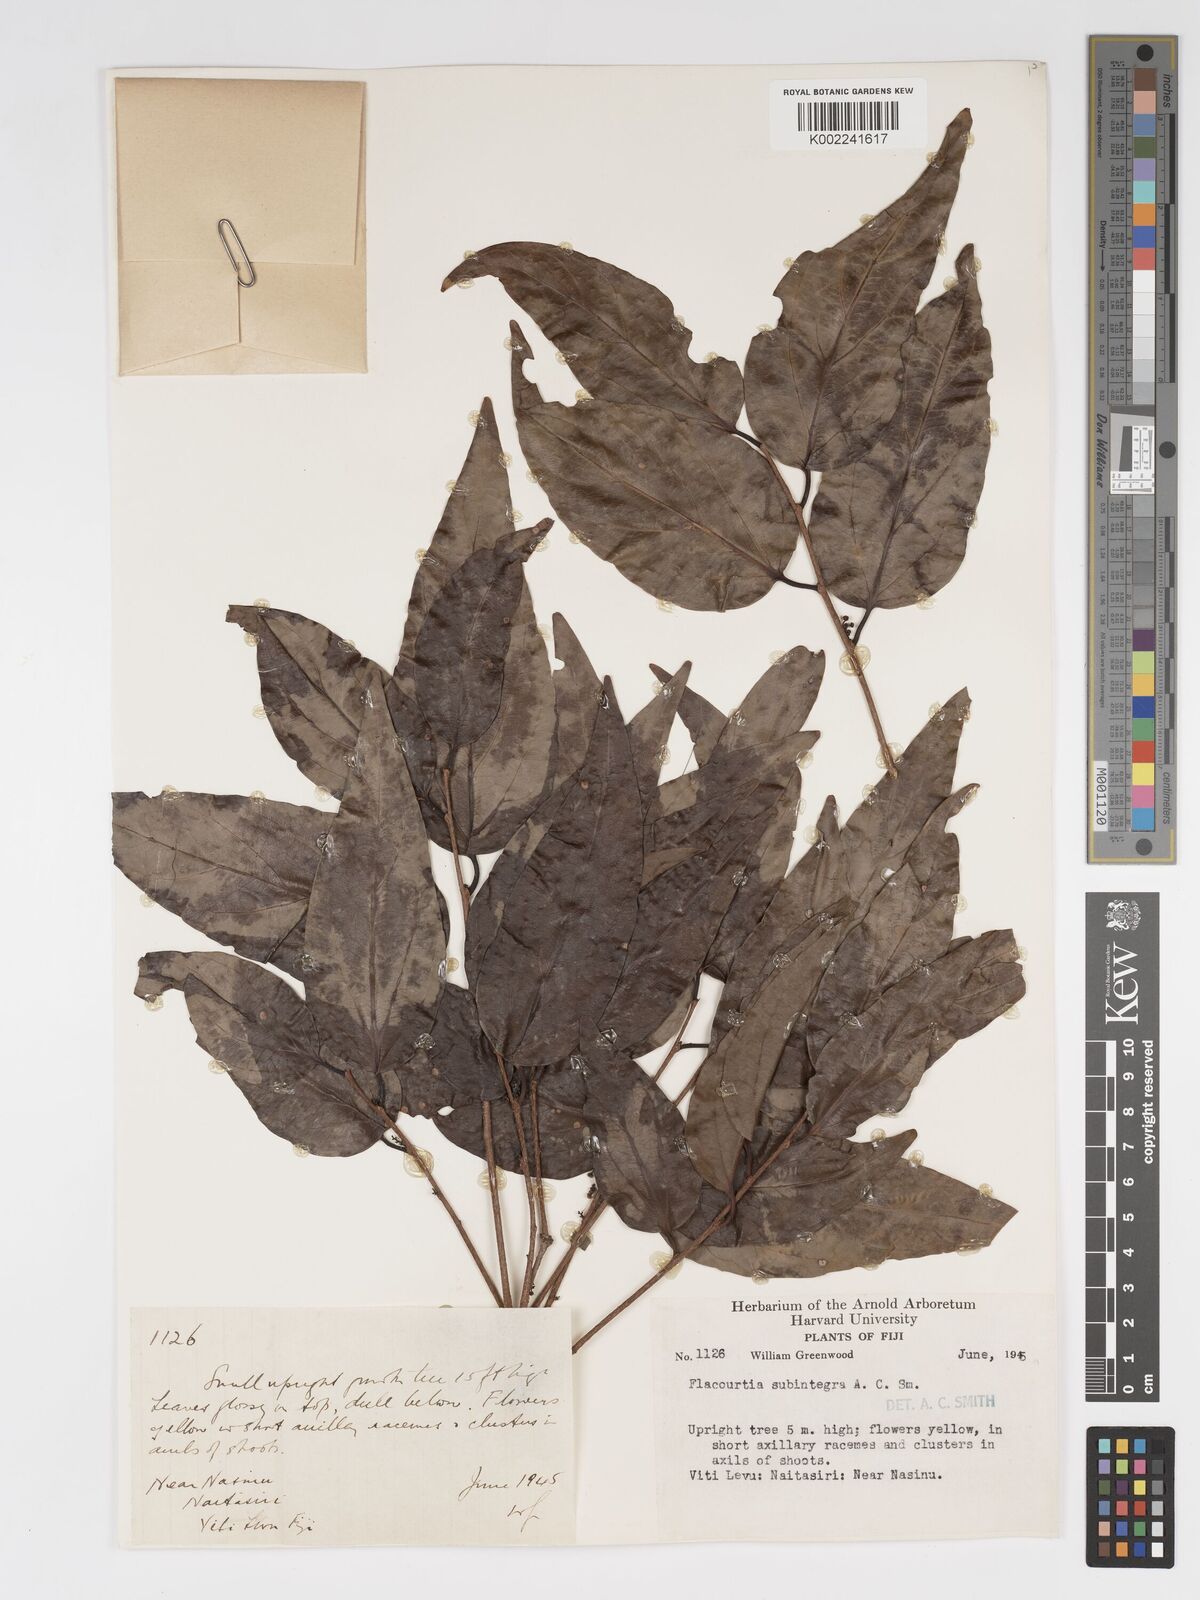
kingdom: Plantae
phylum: Tracheophyta
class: Magnoliopsida
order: Malpighiales
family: Salicaceae
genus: Flacourtia
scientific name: Flacourtia subintegra
